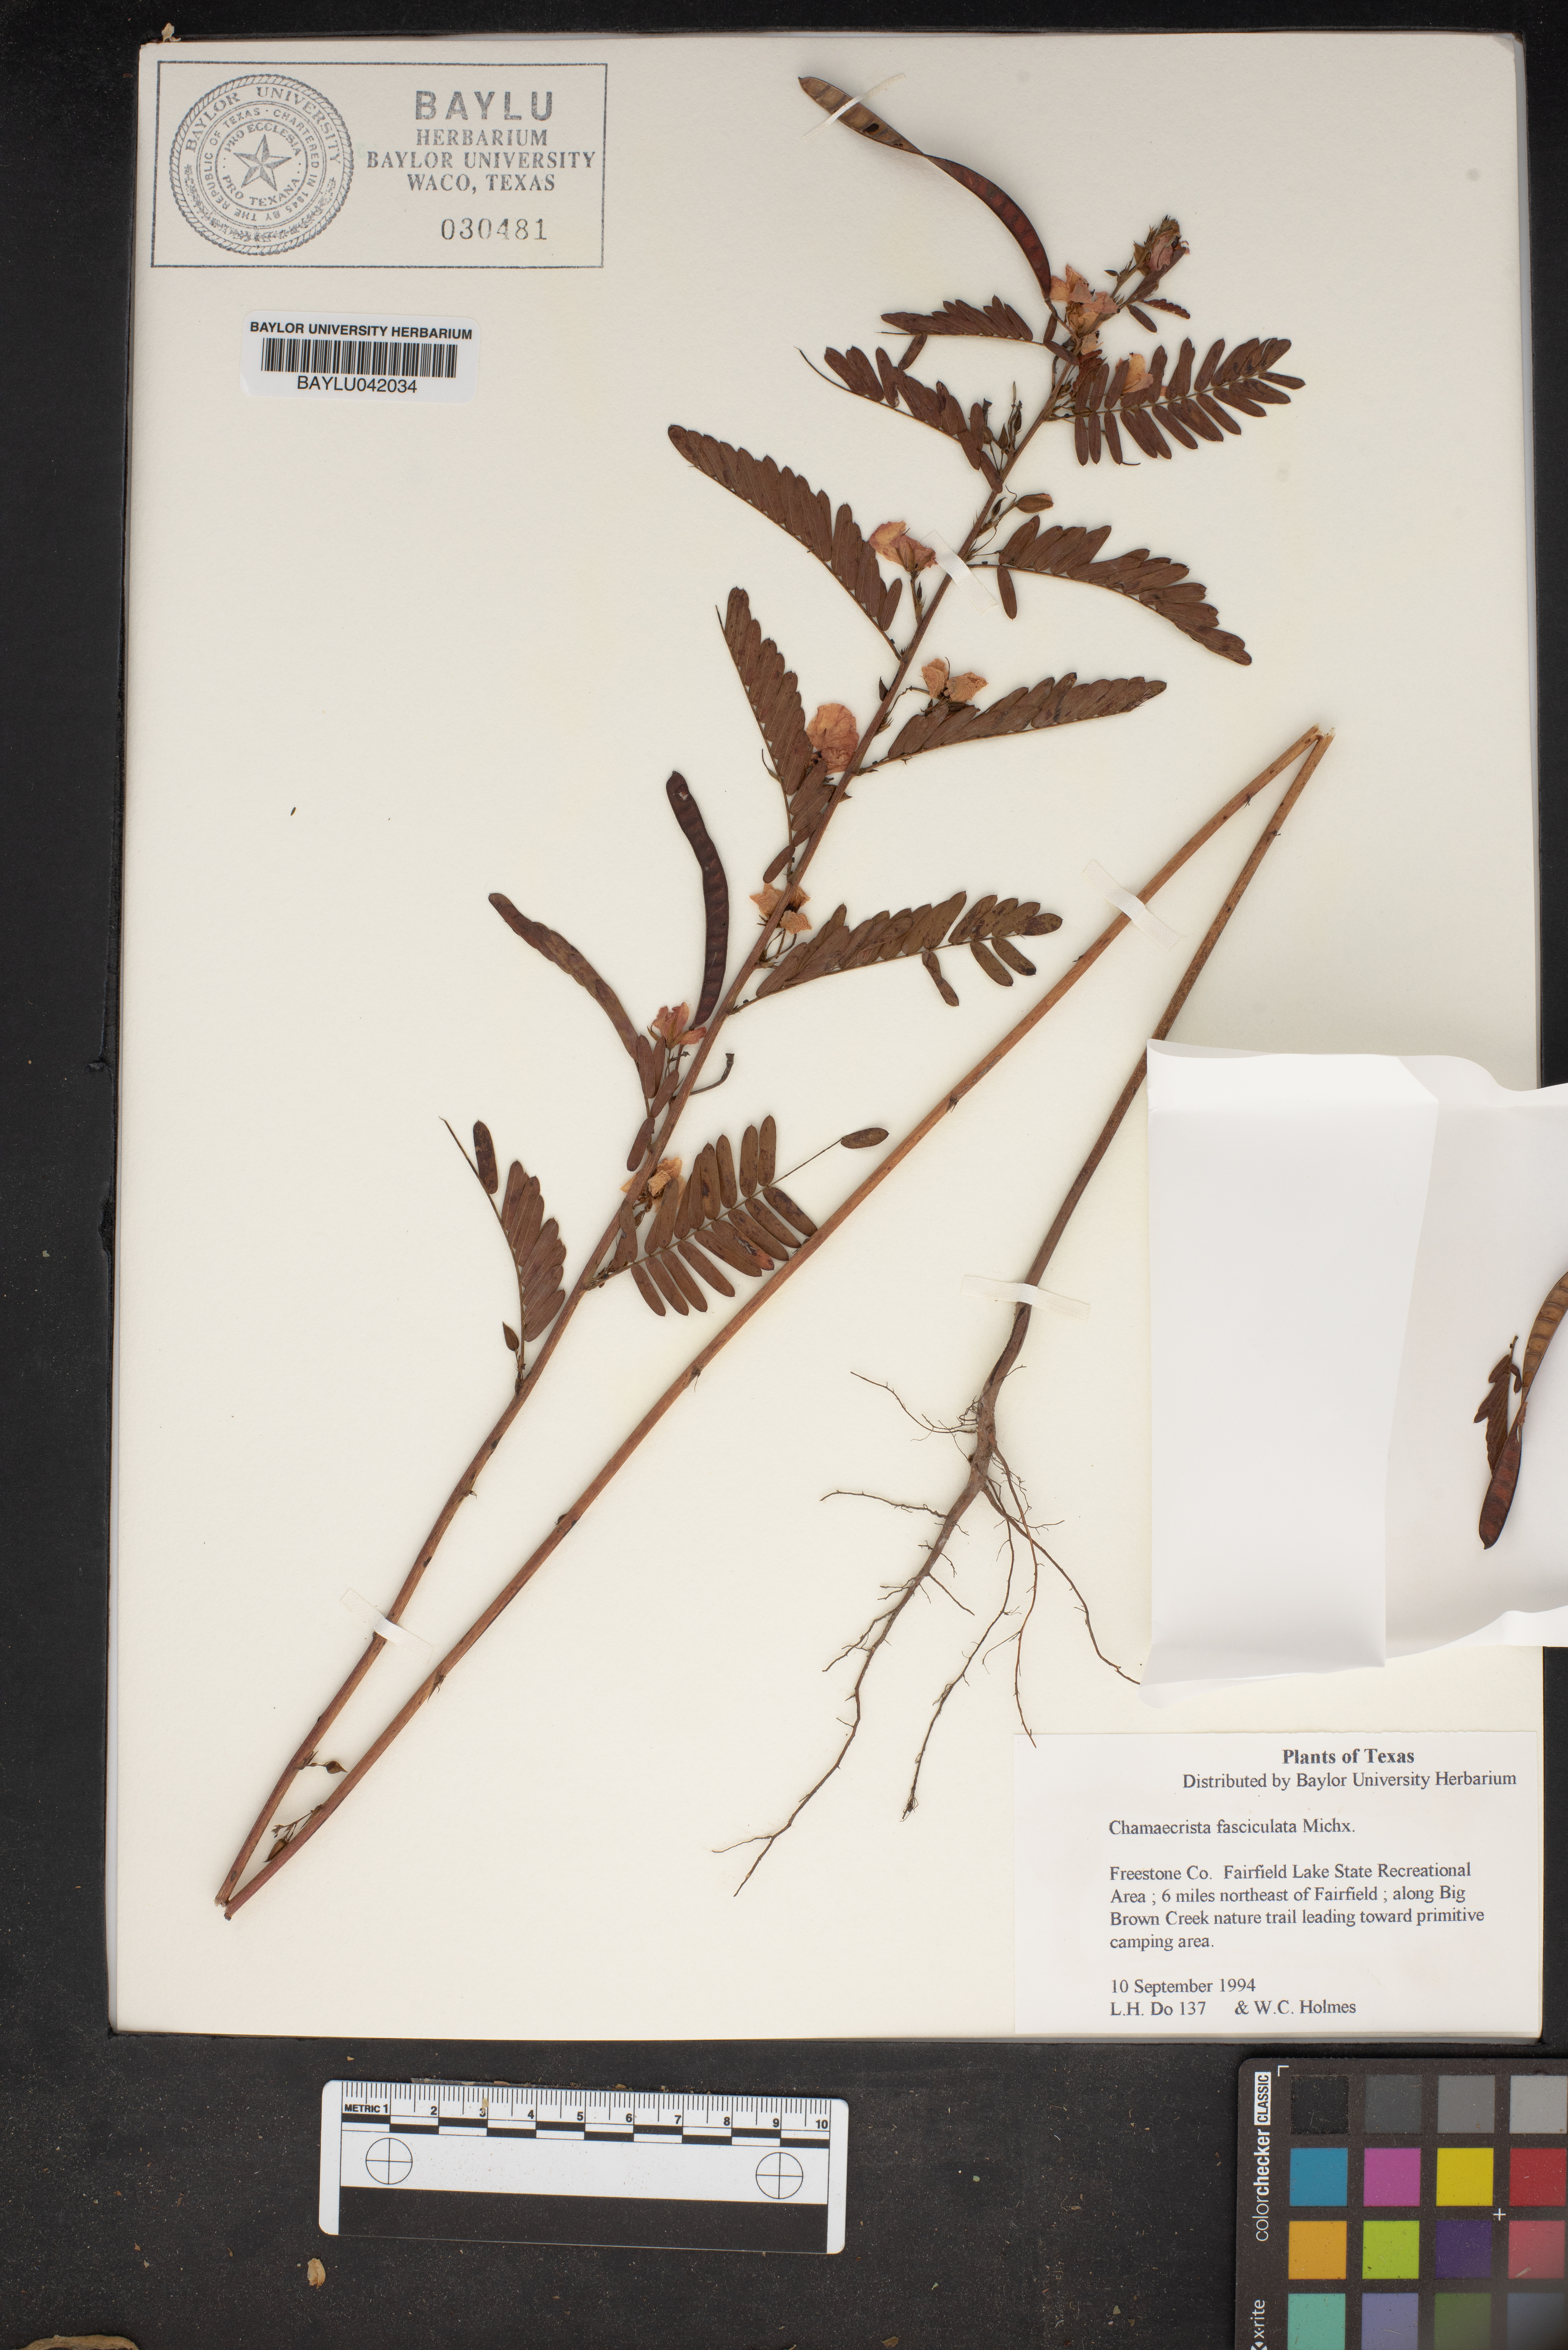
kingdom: Plantae
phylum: Tracheophyta
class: Magnoliopsida
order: Fabales
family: Fabaceae
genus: Chamaecrista
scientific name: Chamaecrista fasciculata
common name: Golden cassia
